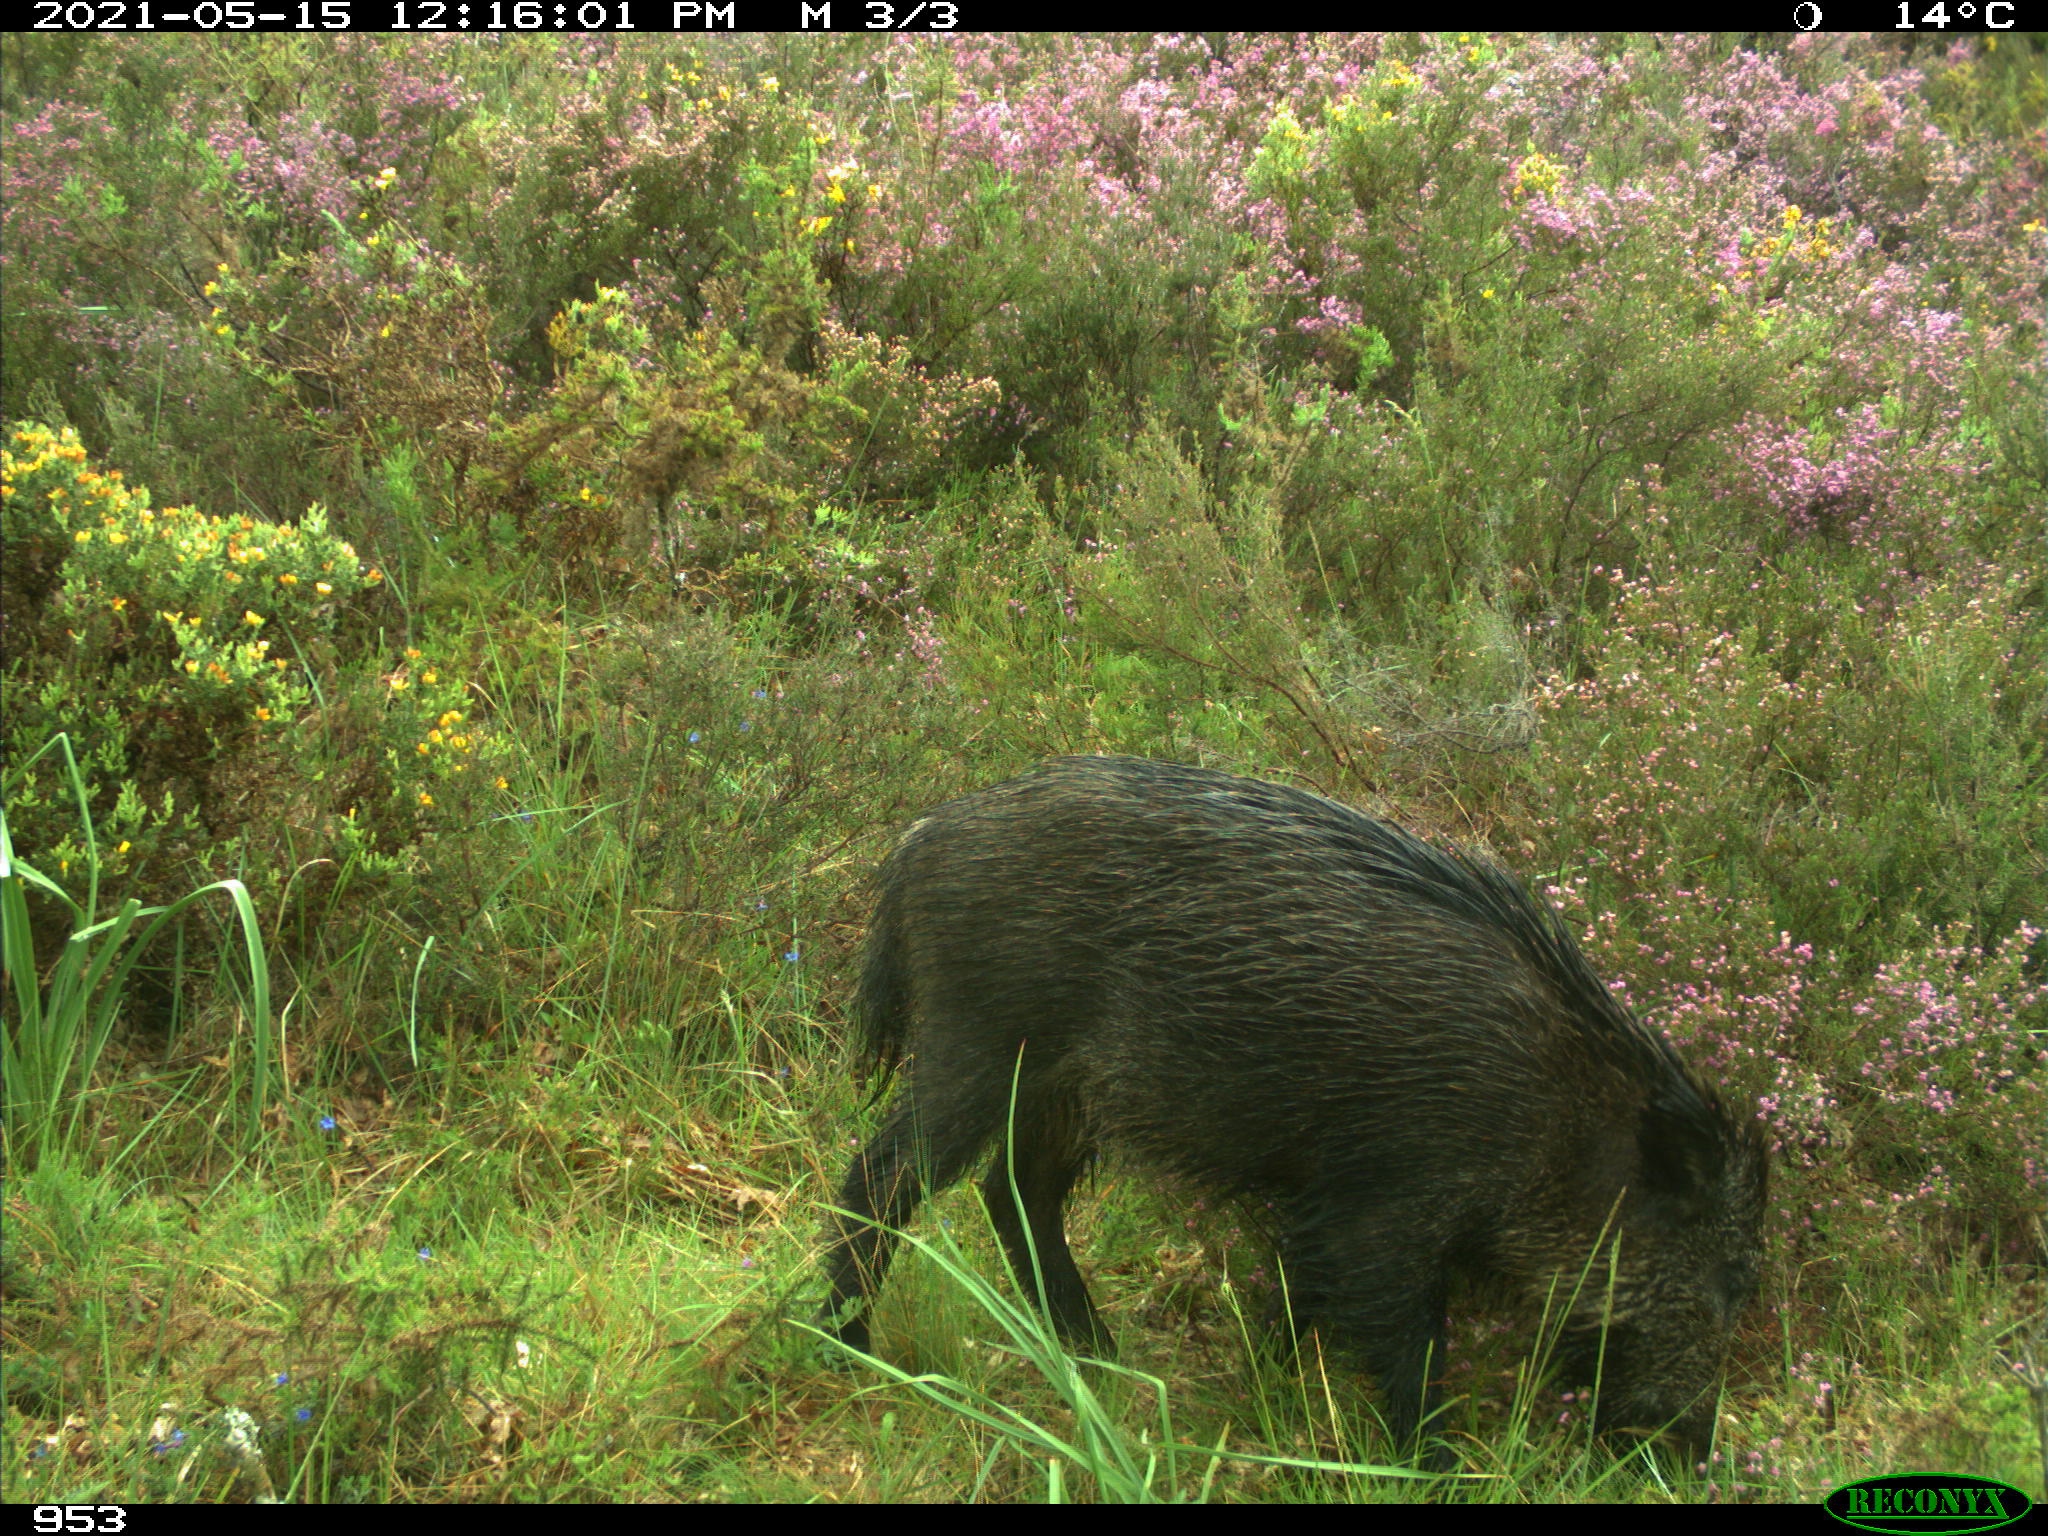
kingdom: Animalia
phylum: Chordata
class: Mammalia
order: Artiodactyla
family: Suidae
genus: Sus
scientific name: Sus scrofa
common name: Wild boar
